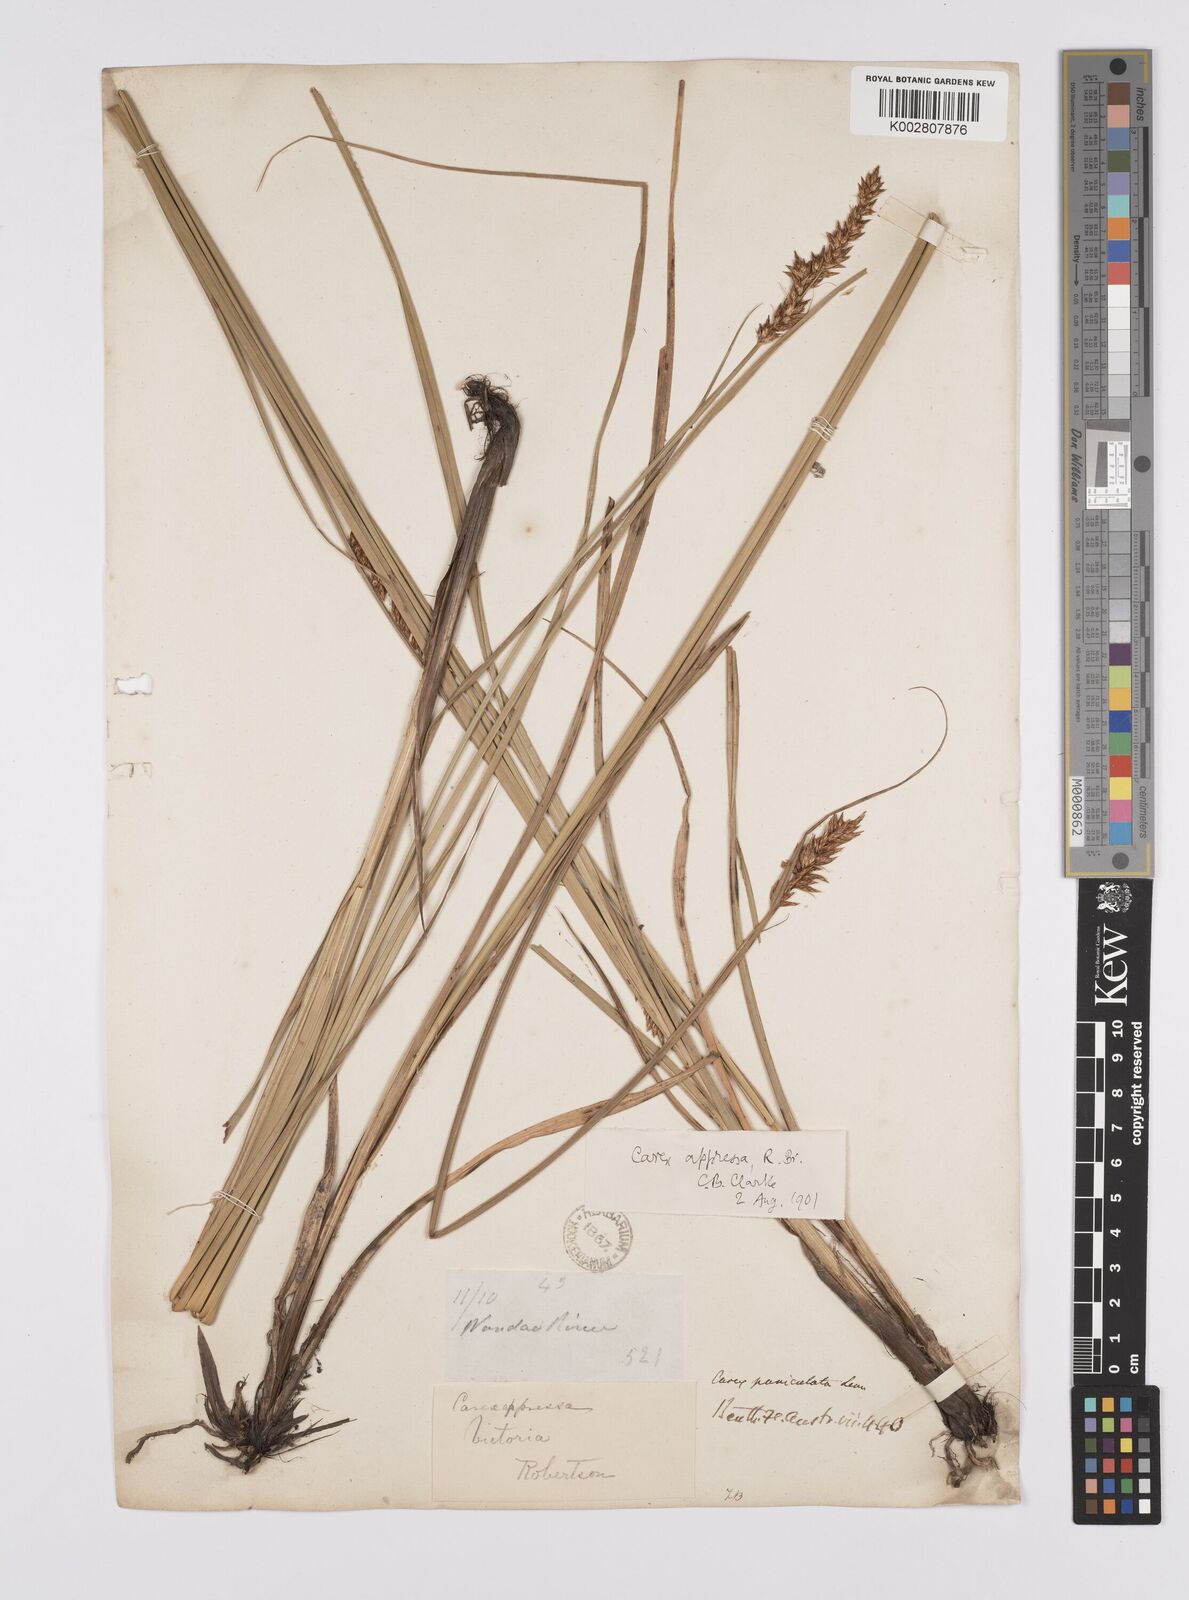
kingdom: Plantae
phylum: Tracheophyta
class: Liliopsida
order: Poales
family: Cyperaceae
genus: Carex
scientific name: Carex appressa
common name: Tussock sedge
